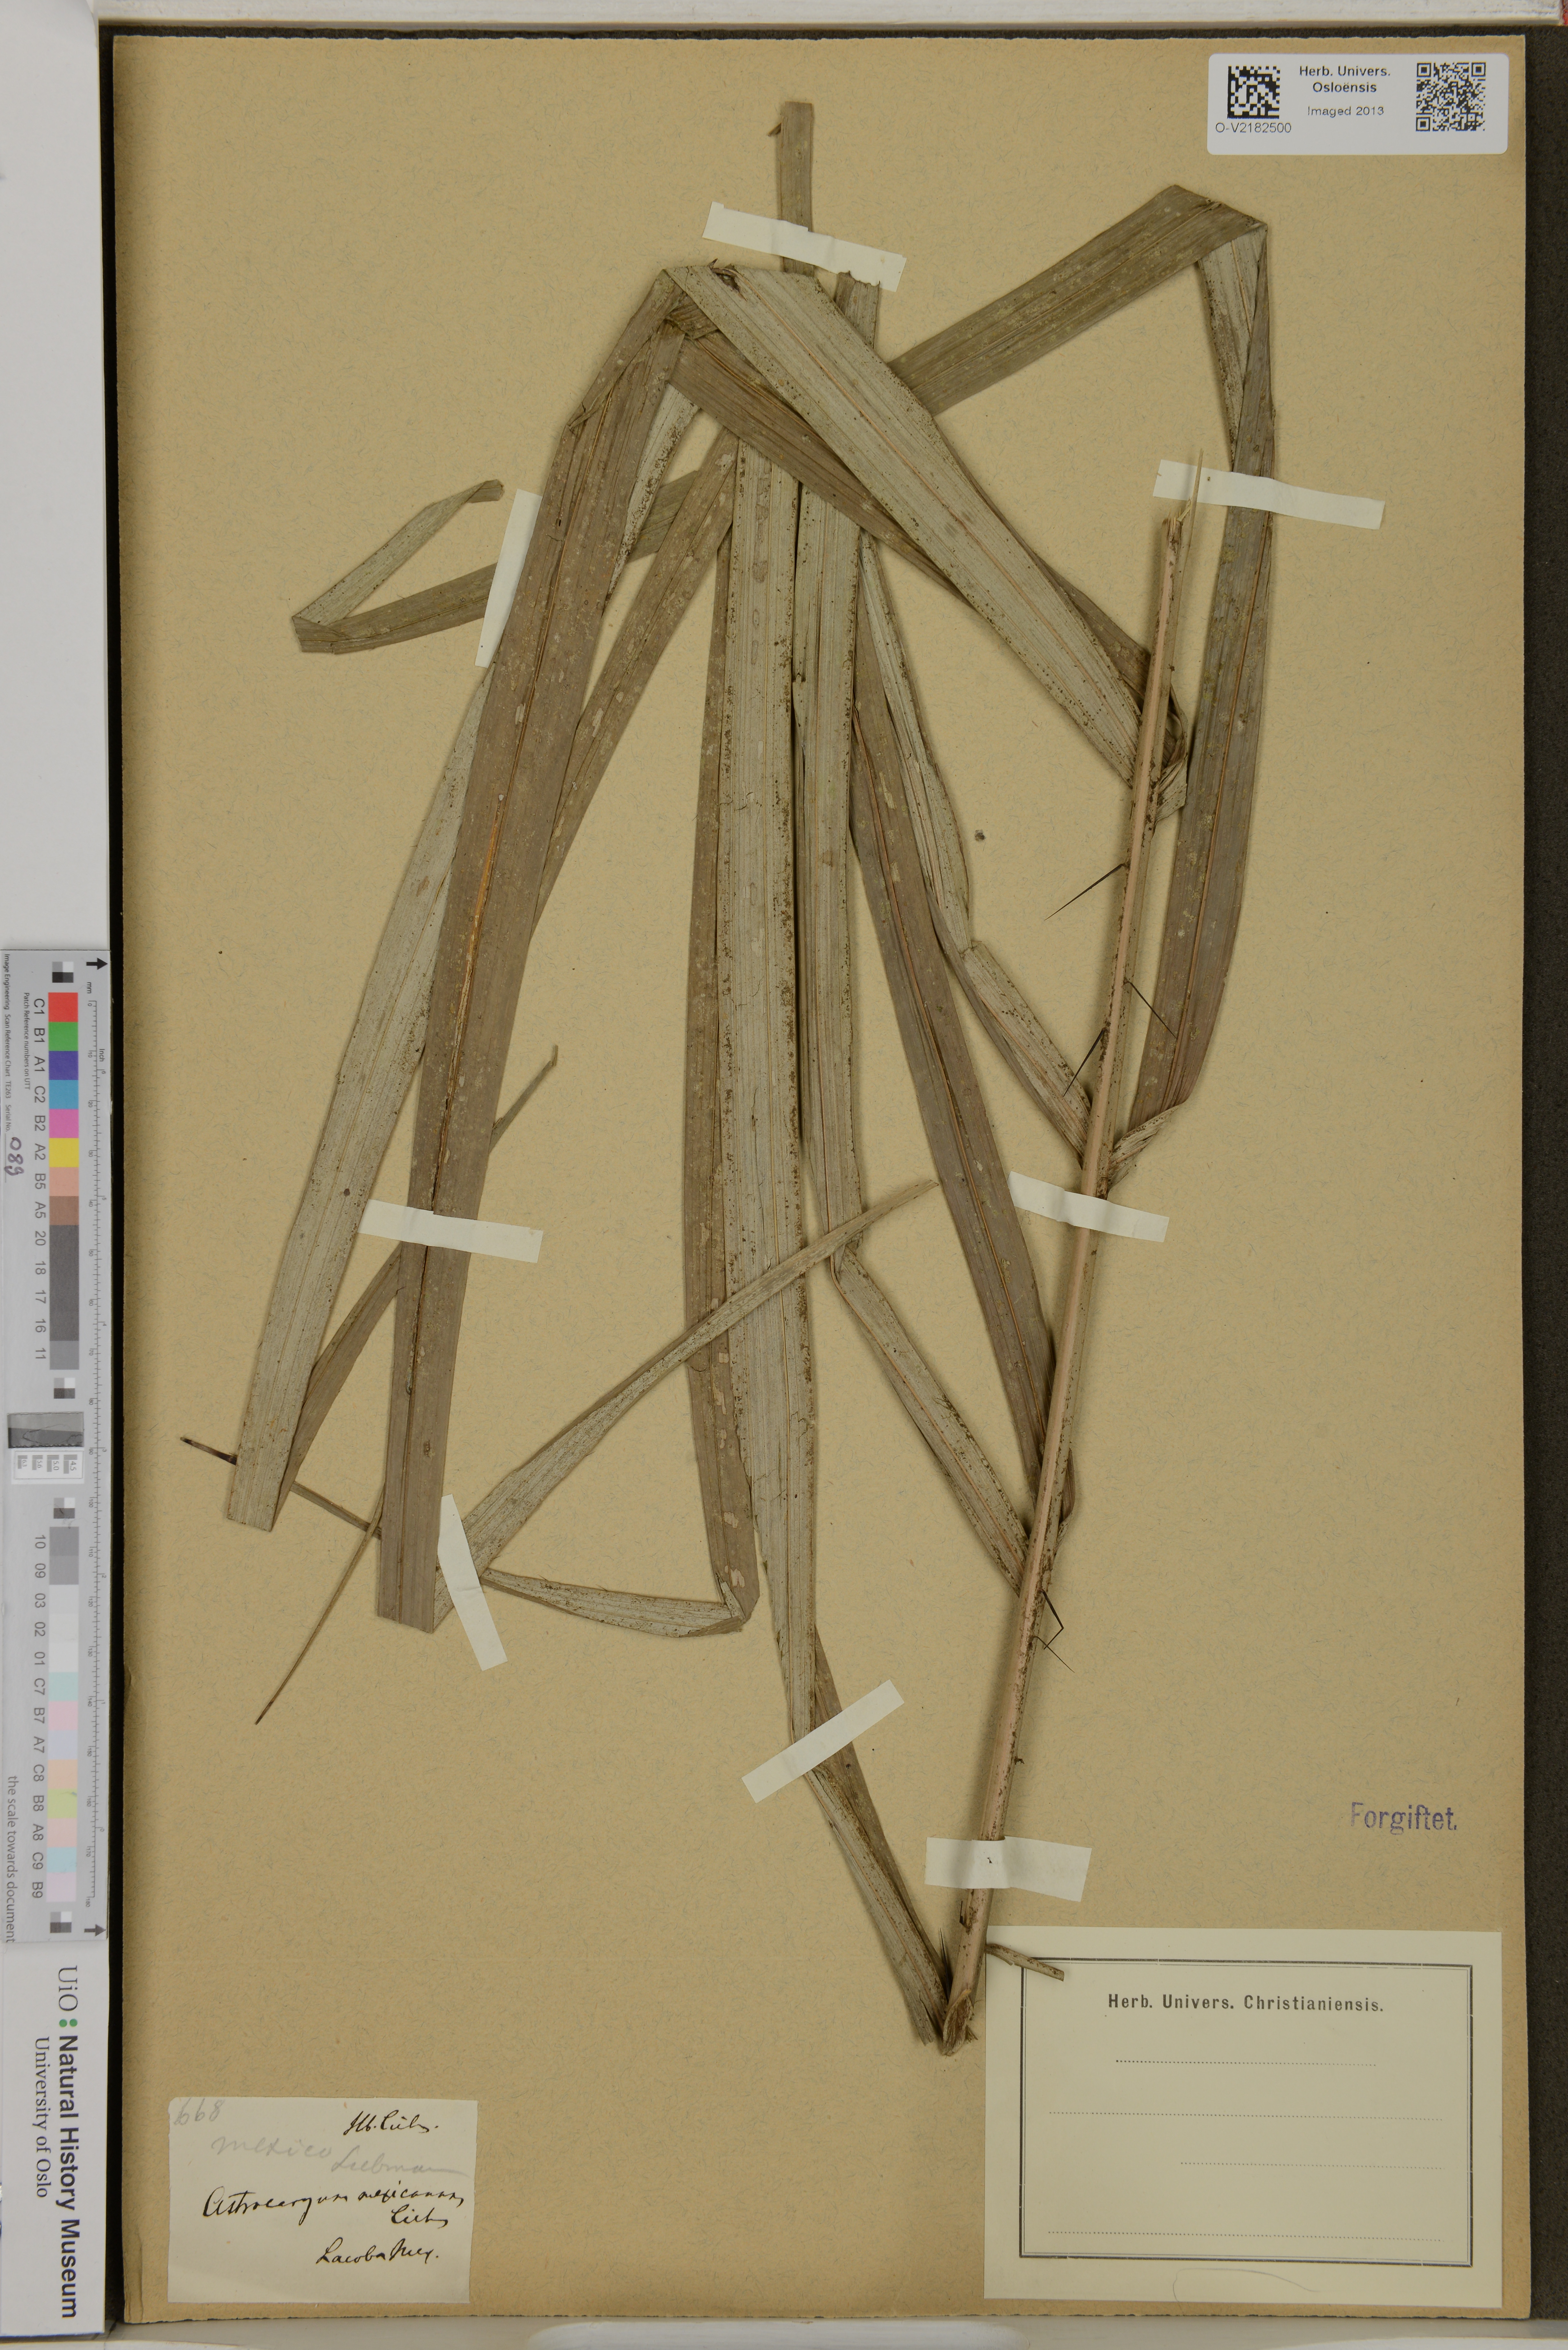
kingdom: Plantae
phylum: Tracheophyta
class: Liliopsida
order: Arecales
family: Arecaceae
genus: Astrocaryum
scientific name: Astrocaryum mexicanum
